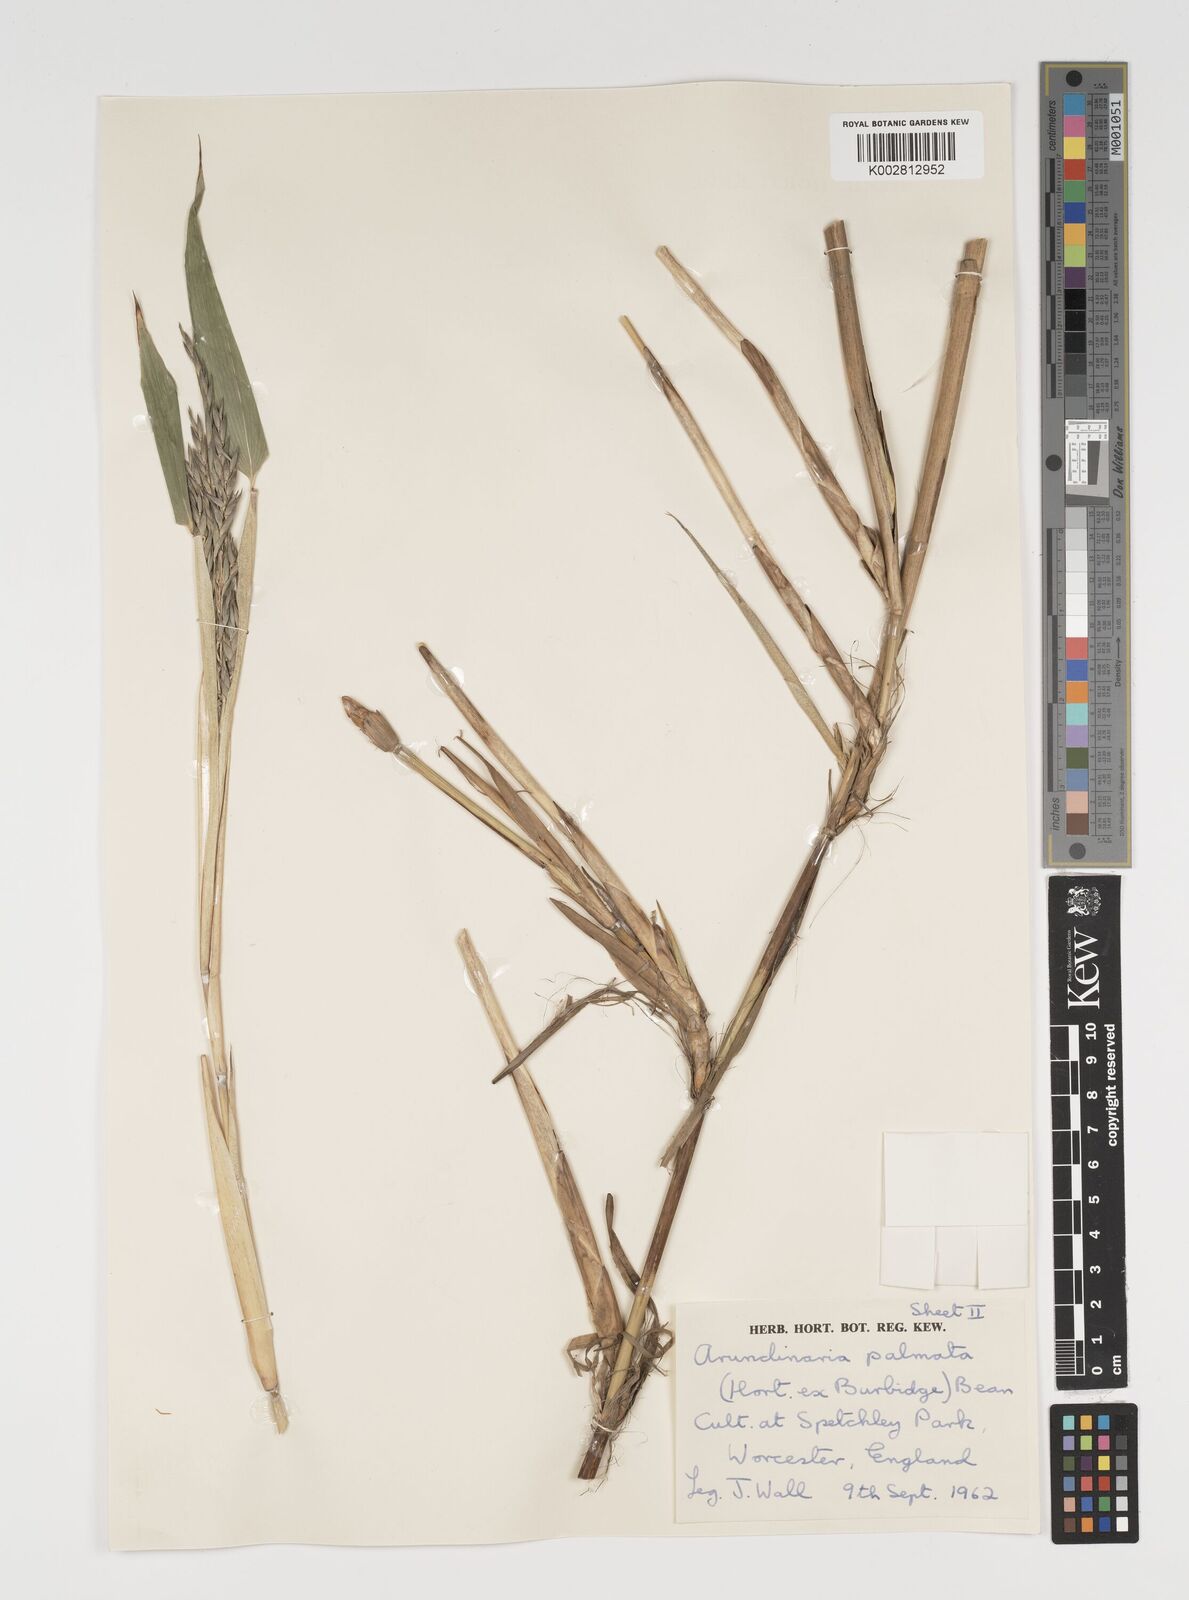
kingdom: Plantae
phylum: Tracheophyta
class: Liliopsida
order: Poales
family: Poaceae
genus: Sasa
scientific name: Sasa palmata
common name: Broad-leaved bamboo
